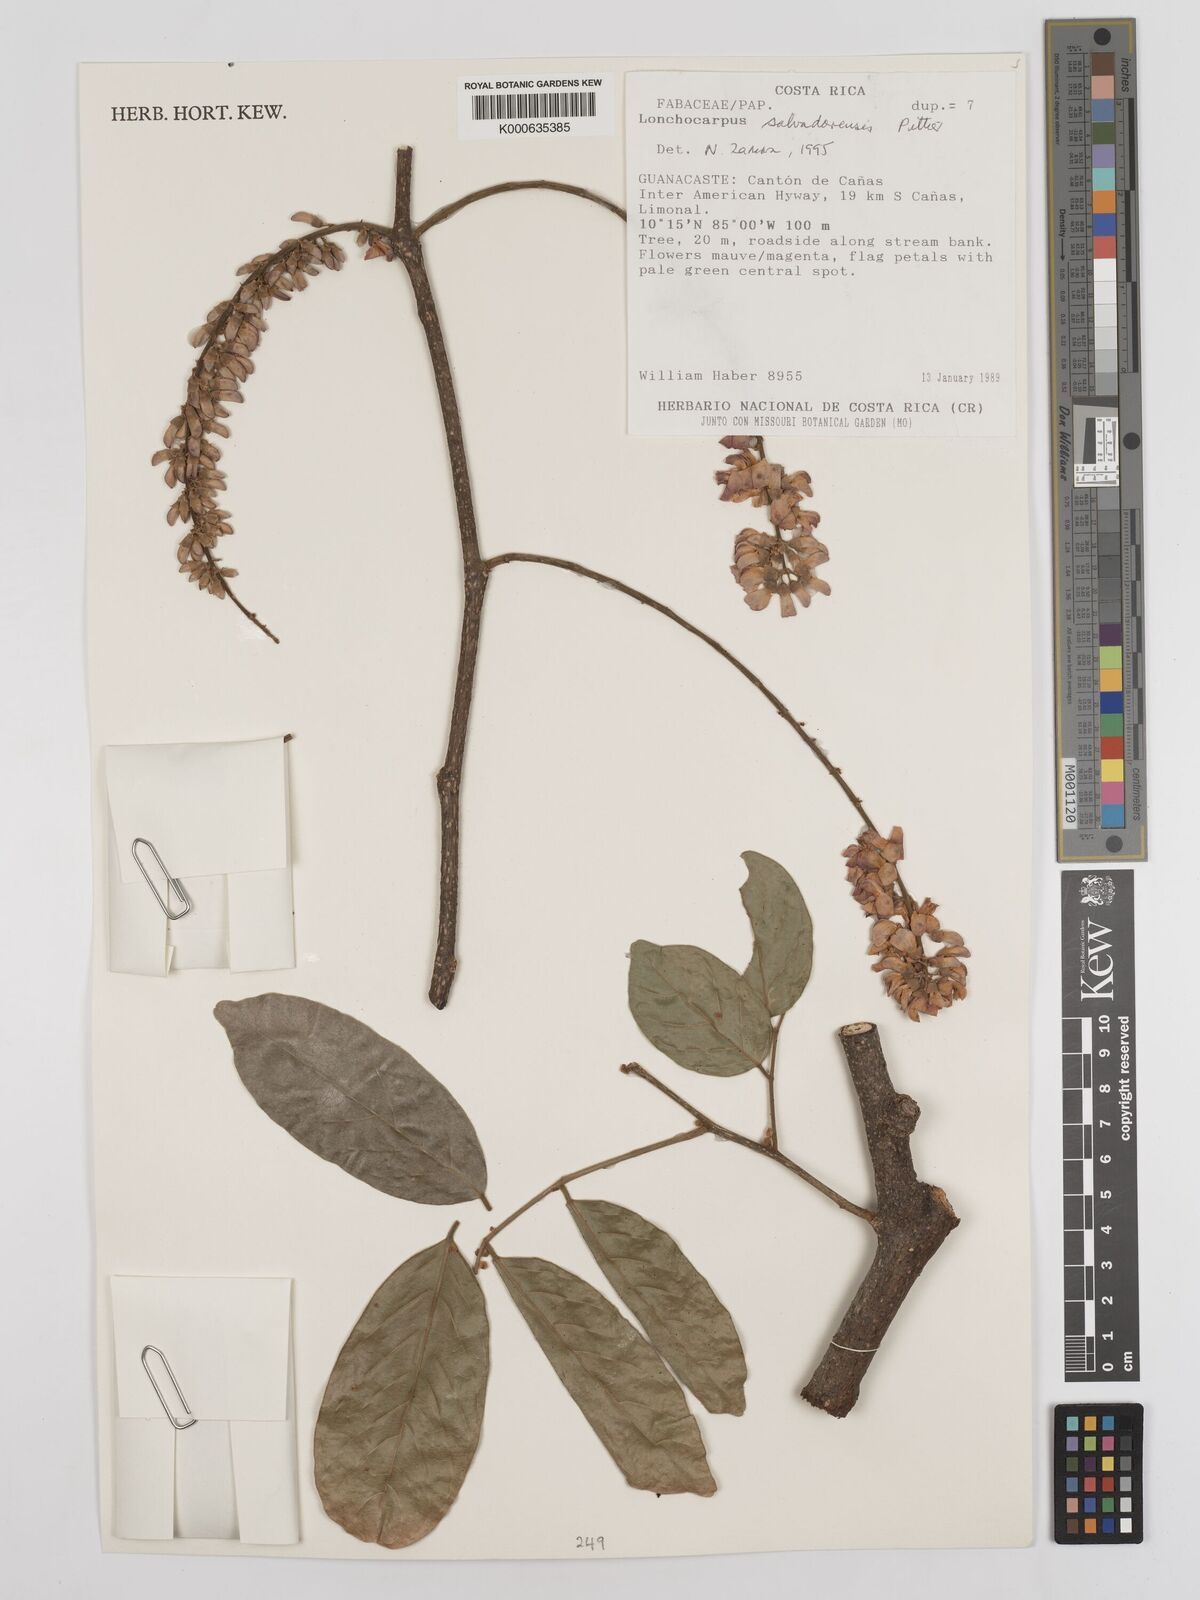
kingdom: Plantae
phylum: Tracheophyta
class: Magnoliopsida
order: Fabales
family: Fabaceae
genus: Lonchocarpus
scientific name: Lonchocarpus salvadorensis
